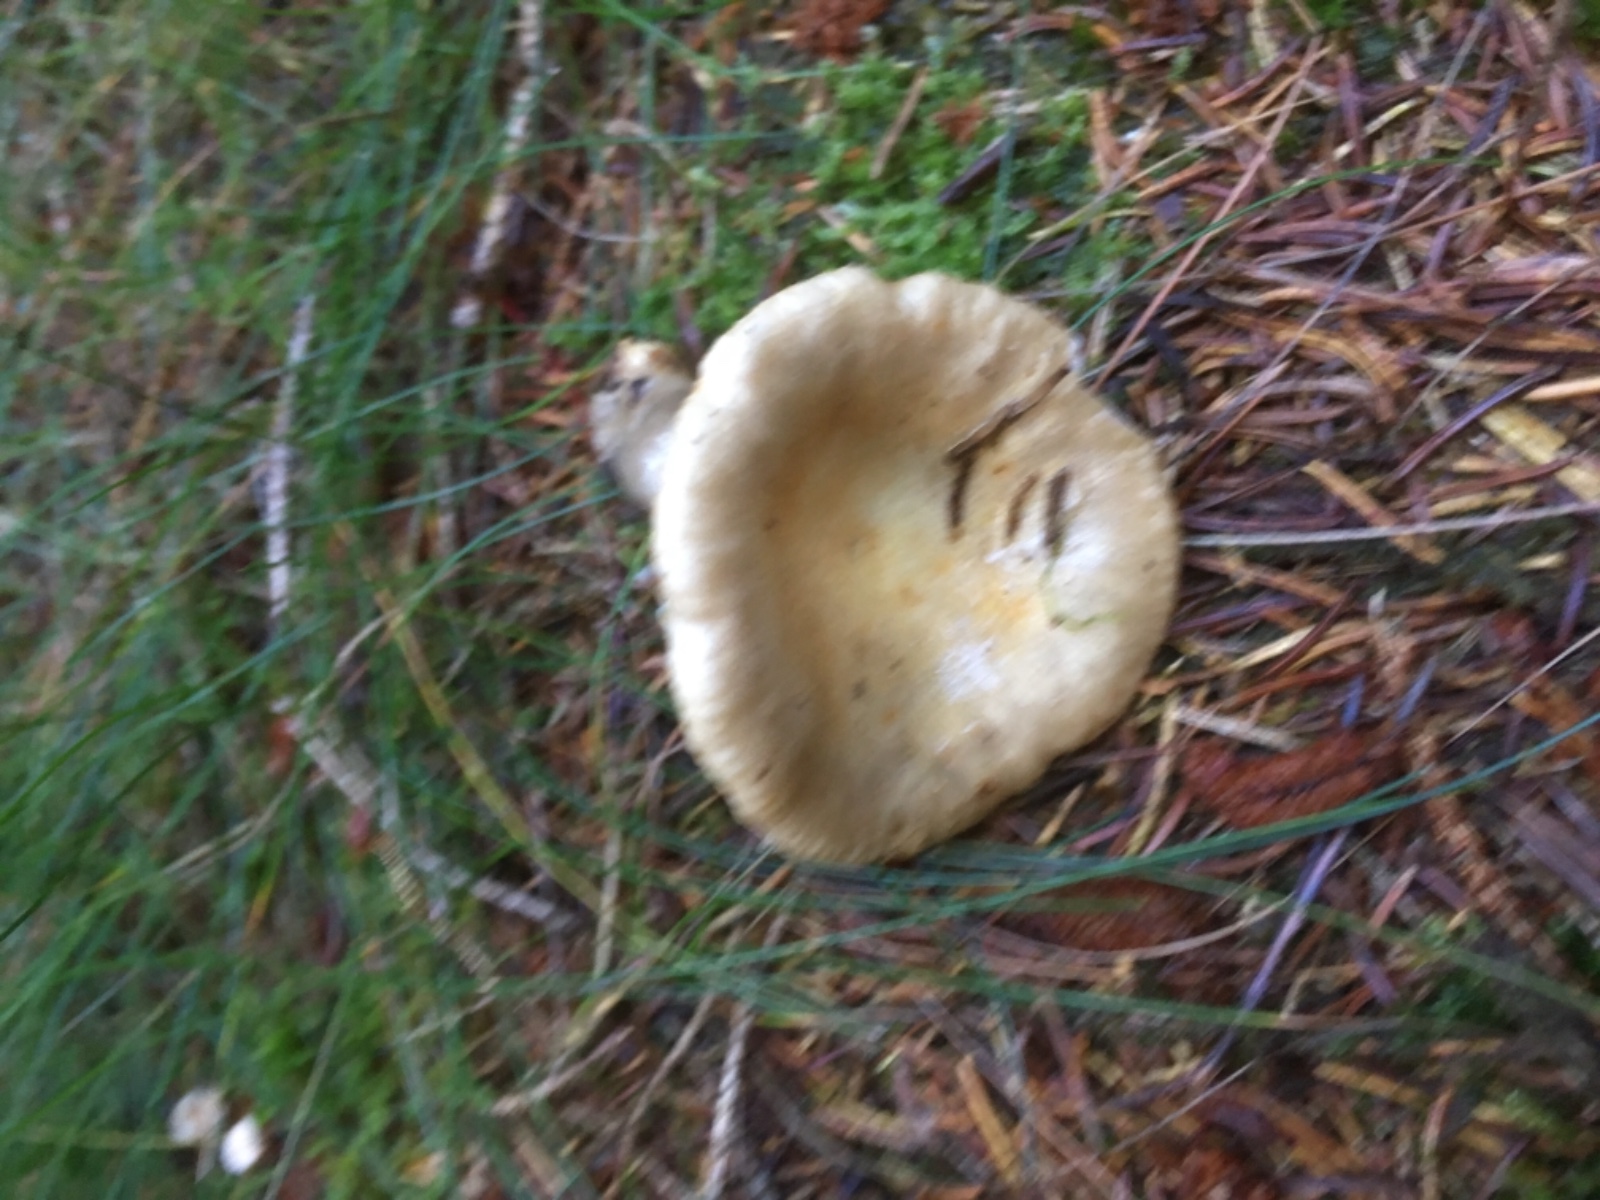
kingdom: Fungi
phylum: Basidiomycota
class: Agaricomycetes
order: Russulales
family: Russulaceae
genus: Russula
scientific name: Russula ochroleuca
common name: okkergul skørhat
